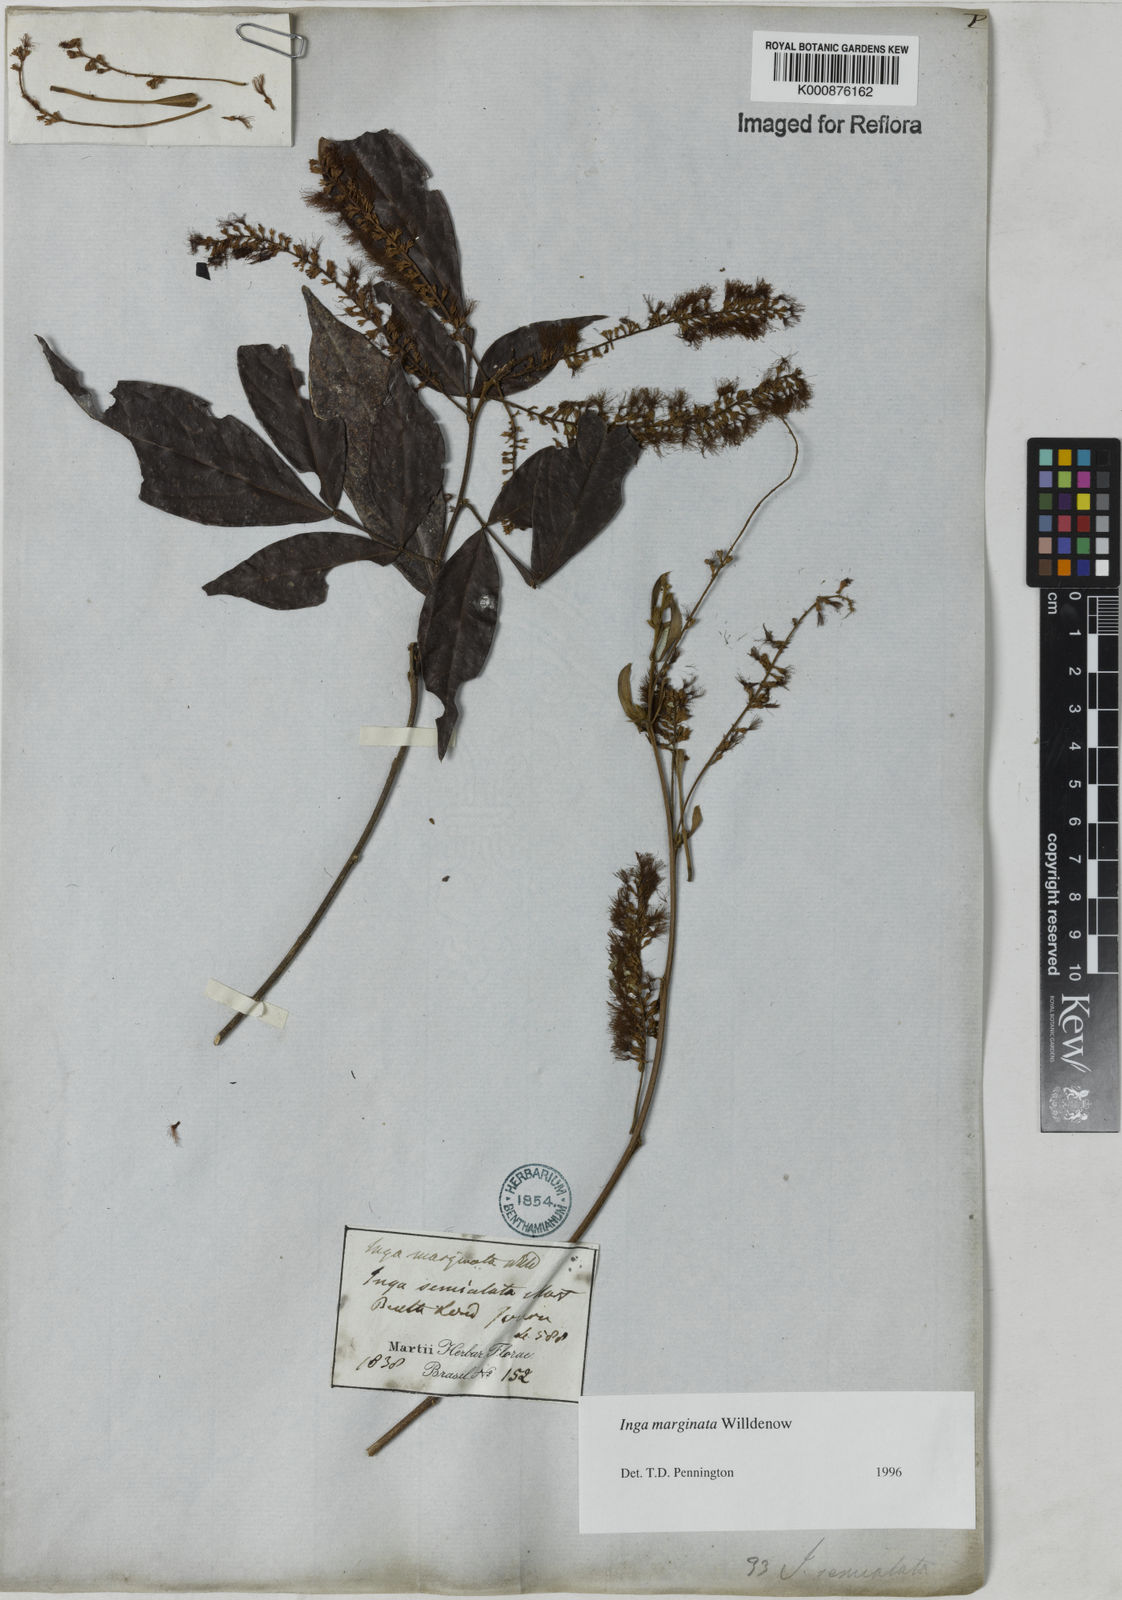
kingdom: Plantae
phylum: Tracheophyta
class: Magnoliopsida
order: Fabales
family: Fabaceae
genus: Inga
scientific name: Inga marginata
